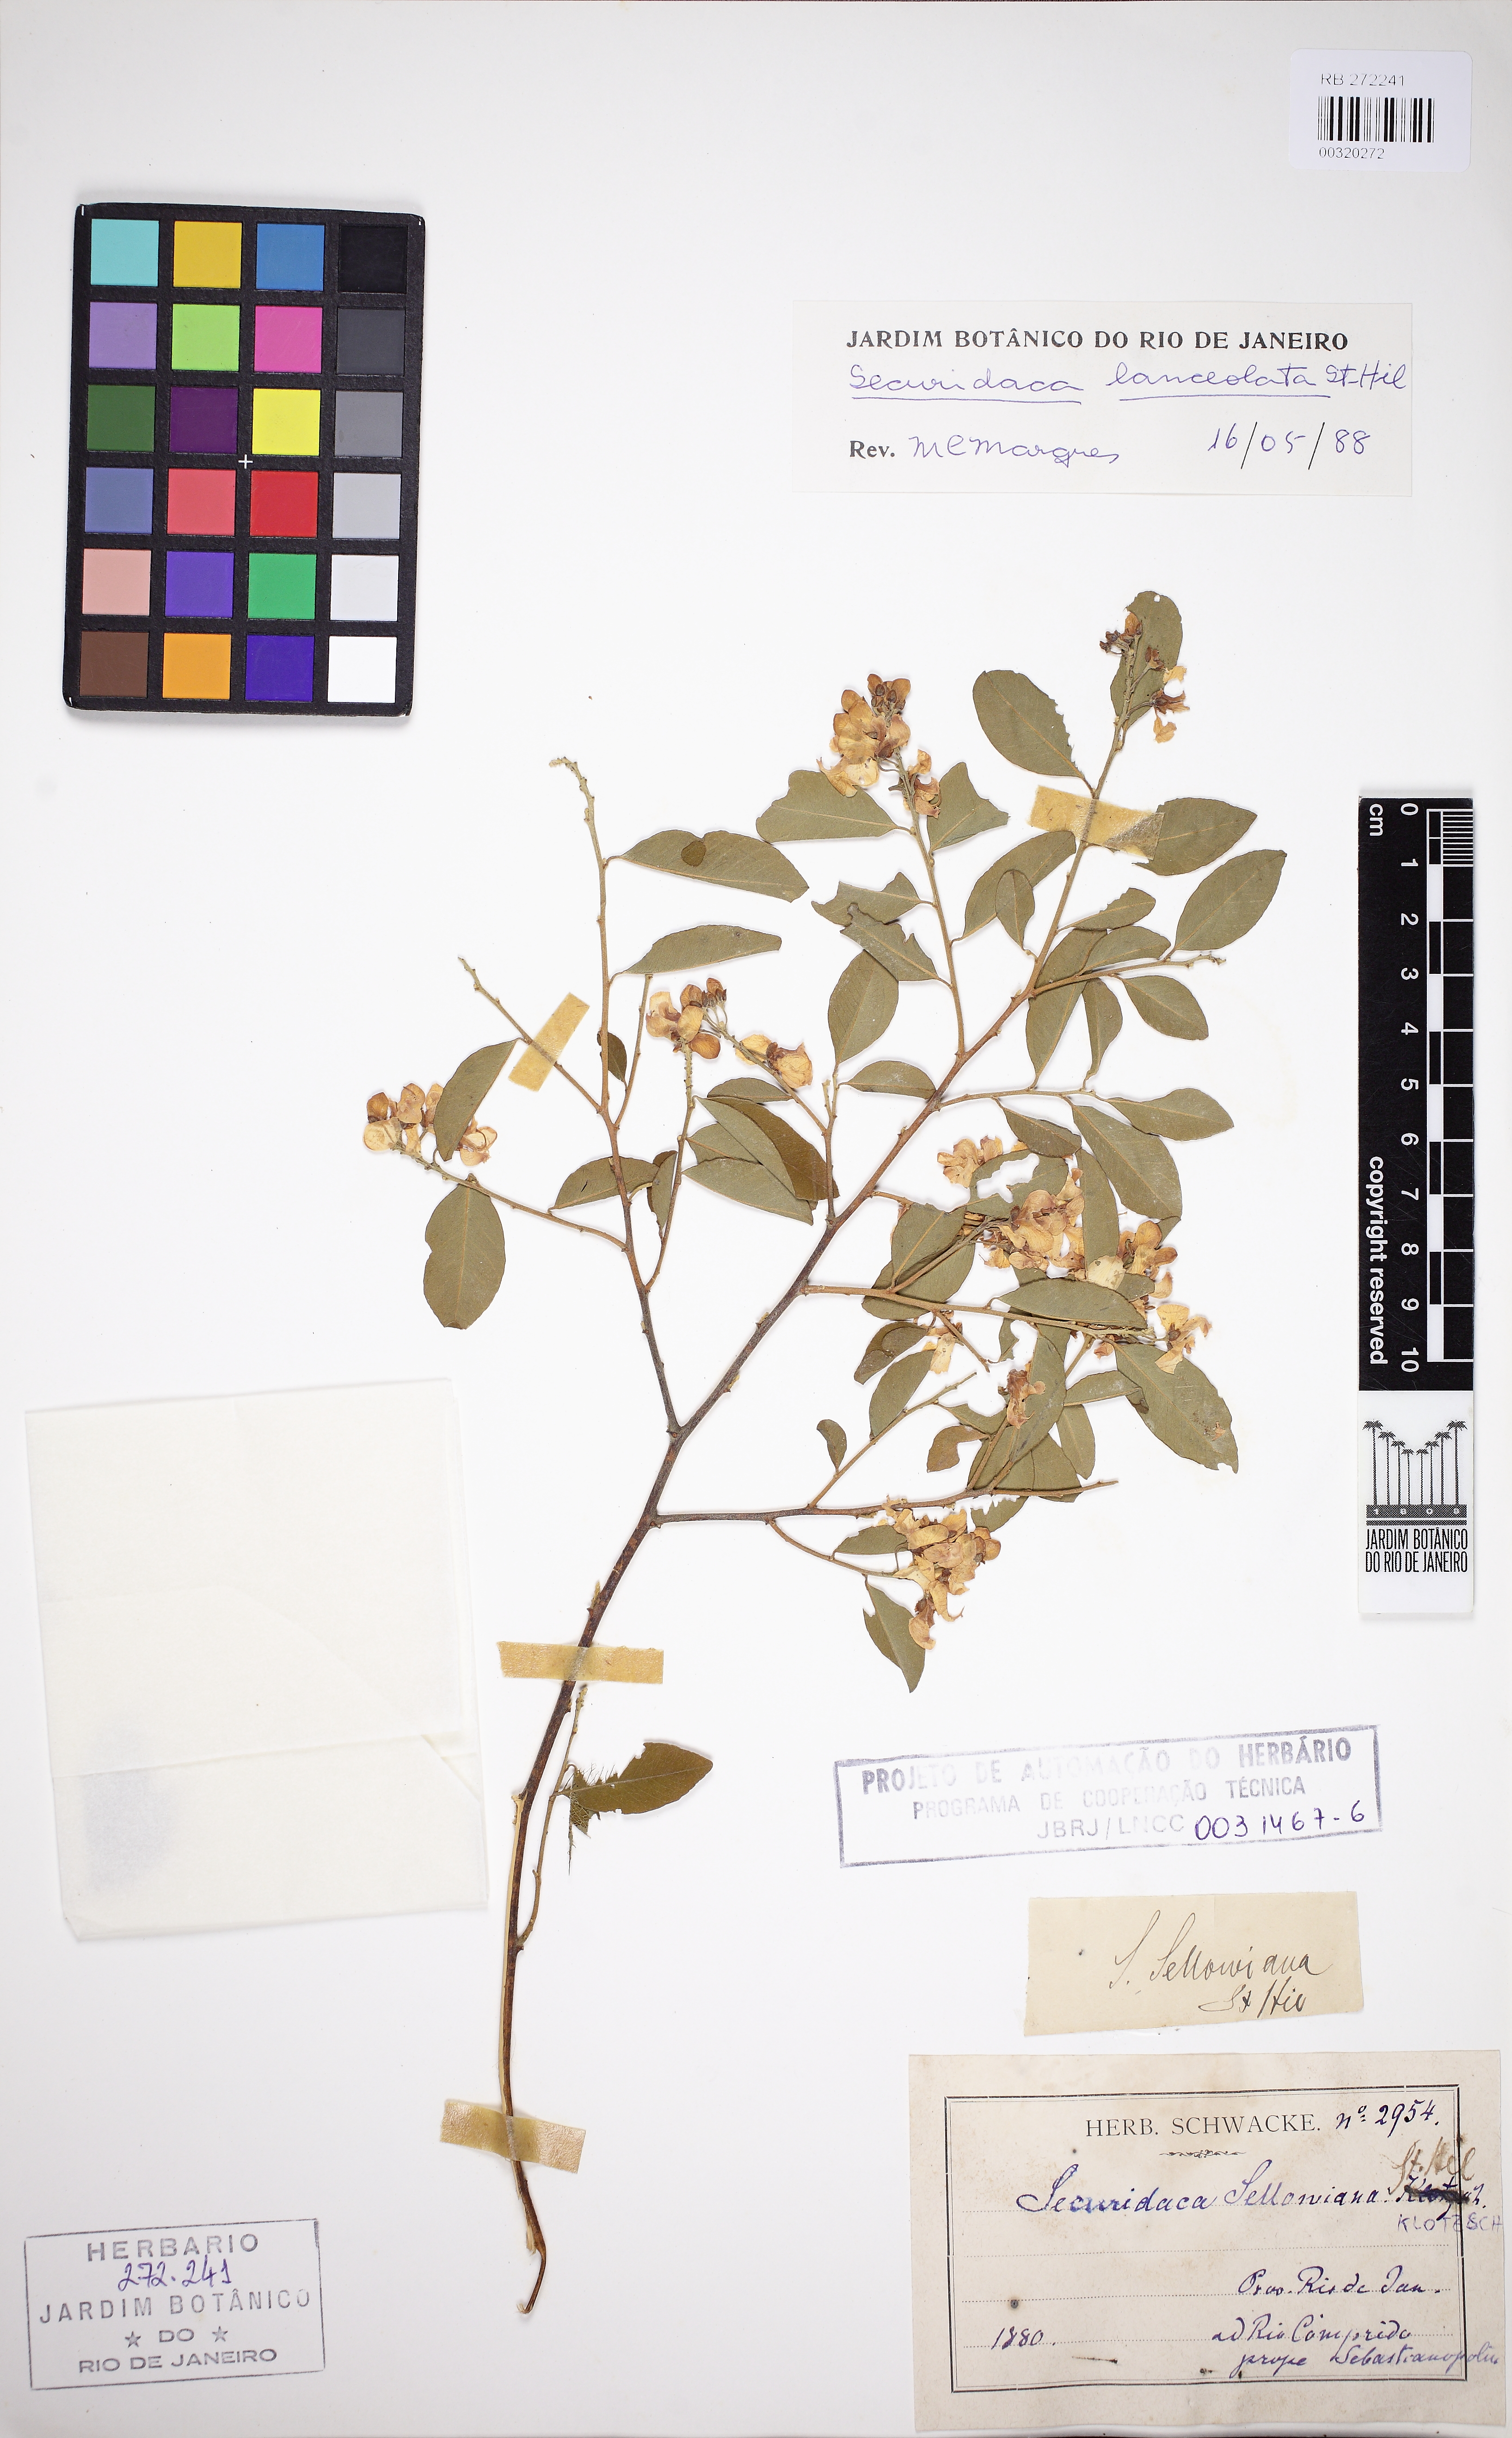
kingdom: Plantae
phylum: Tracheophyta
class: Magnoliopsida
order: Fabales
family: Polygalaceae
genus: Securidaca
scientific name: Securidaca lanceolata
